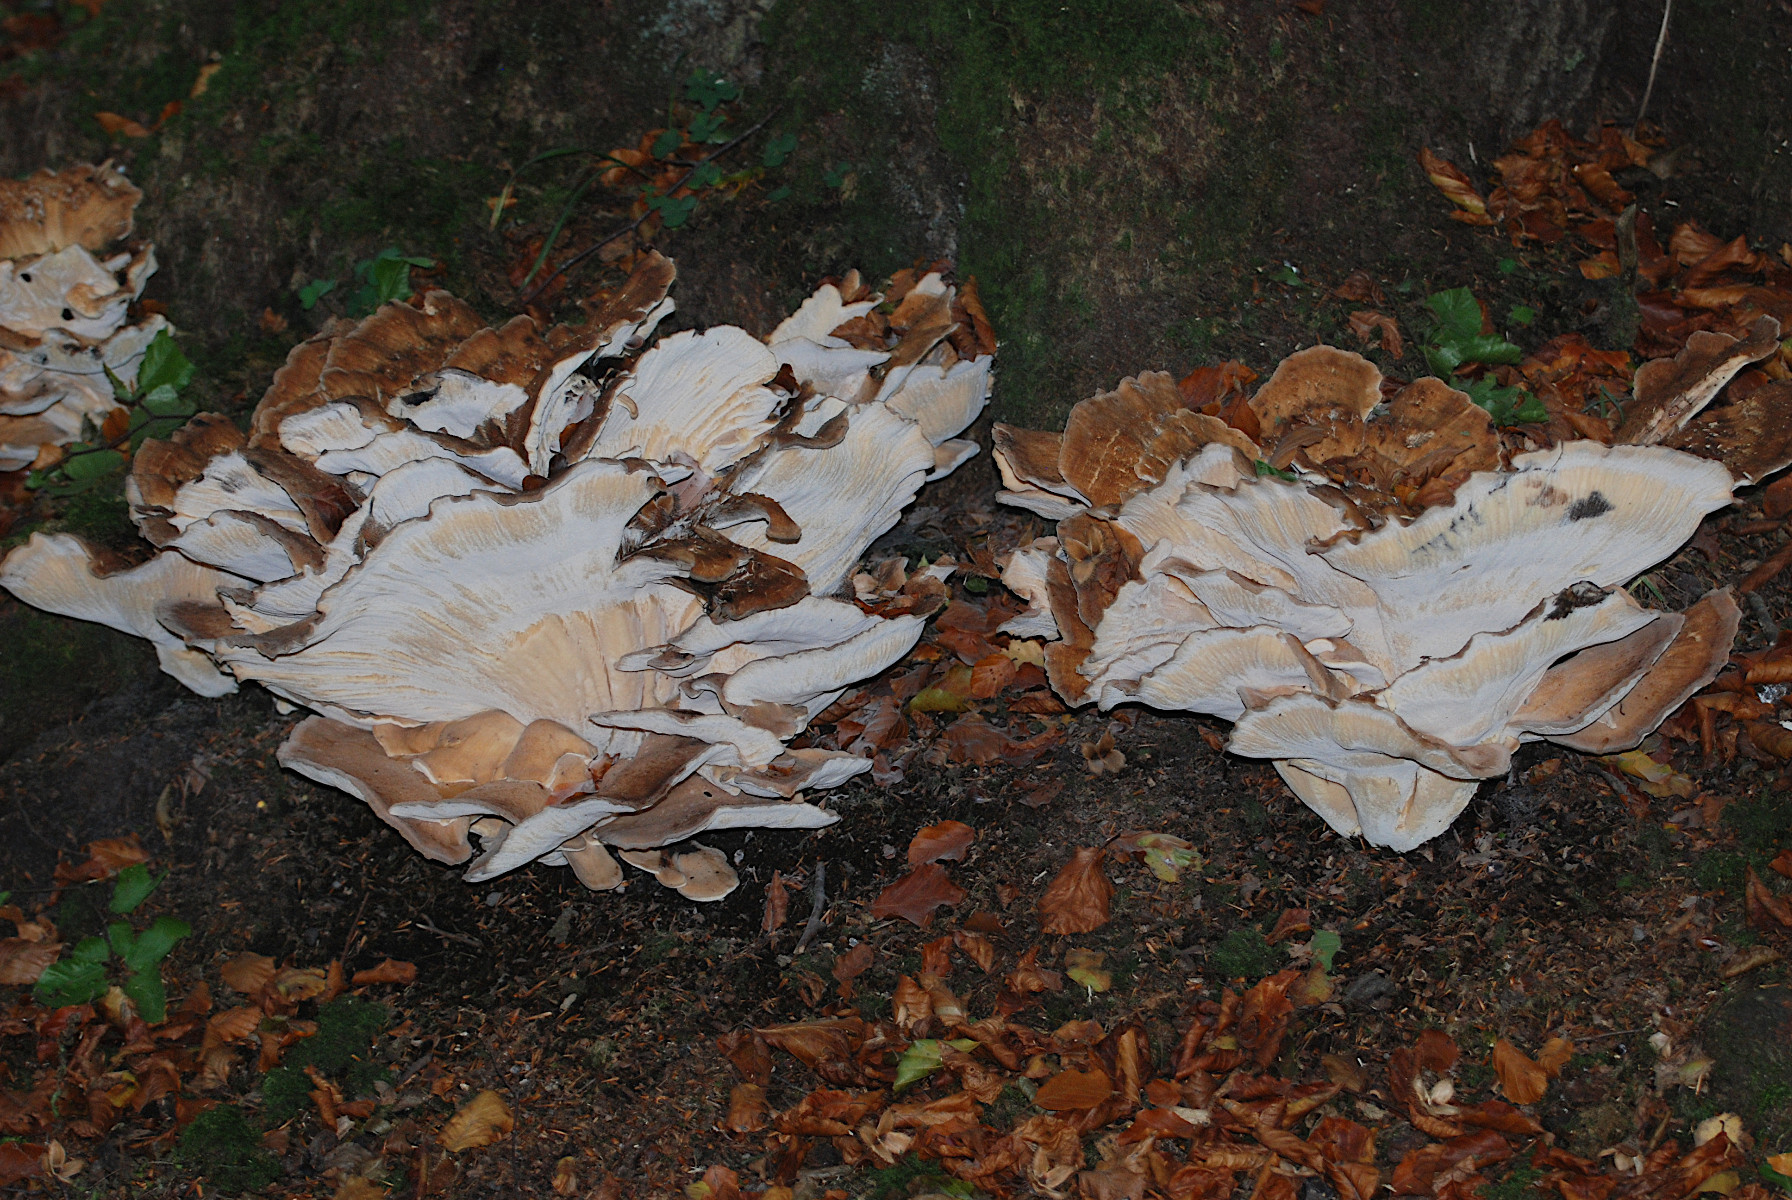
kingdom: Fungi
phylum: Basidiomycota
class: Agaricomycetes
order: Polyporales
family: Meripilaceae
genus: Meripilus
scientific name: Meripilus giganteus
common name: kæmpeporesvamp
